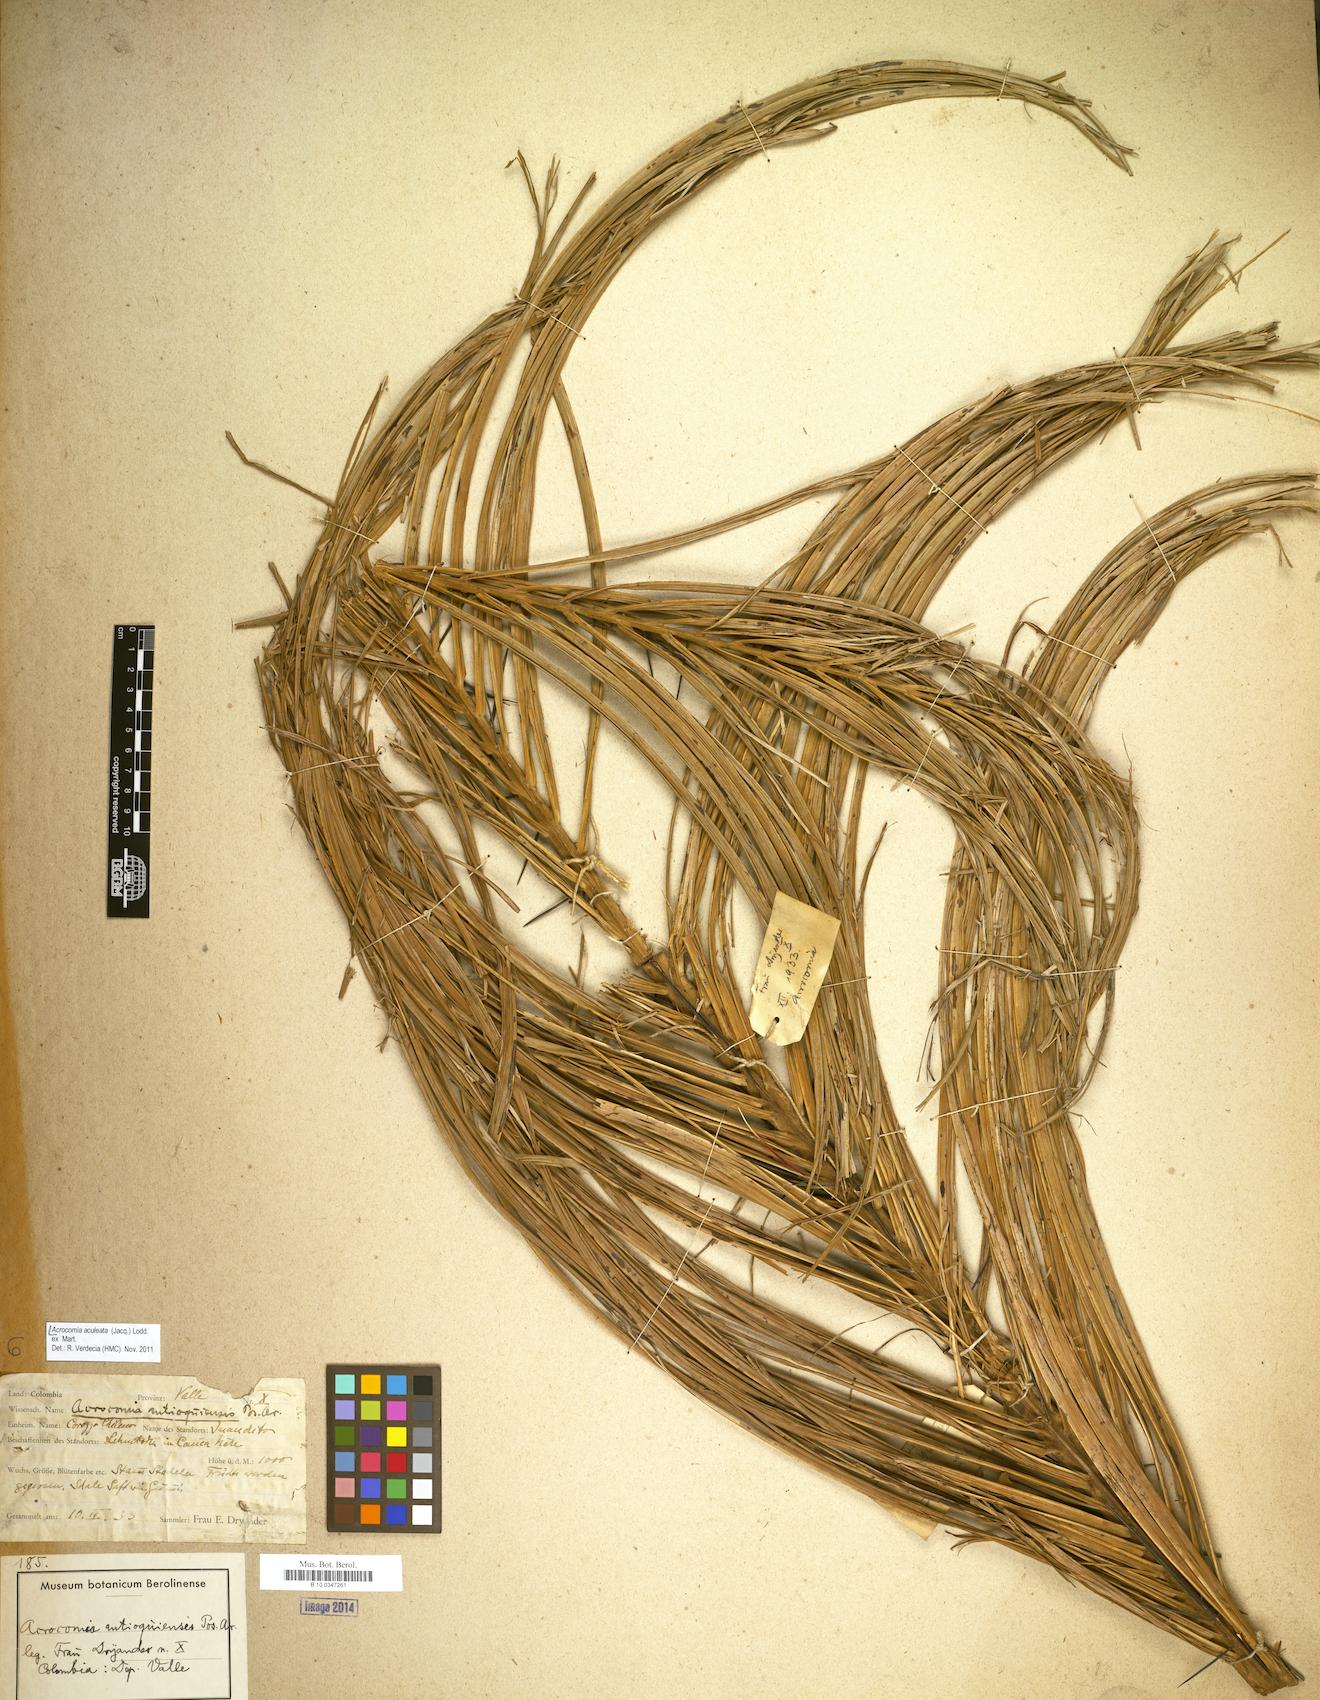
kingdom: Plantae
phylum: Tracheophyta
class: Liliopsida
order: Arecales
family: Arecaceae
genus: Acrocomia
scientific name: Acrocomia aculeata
